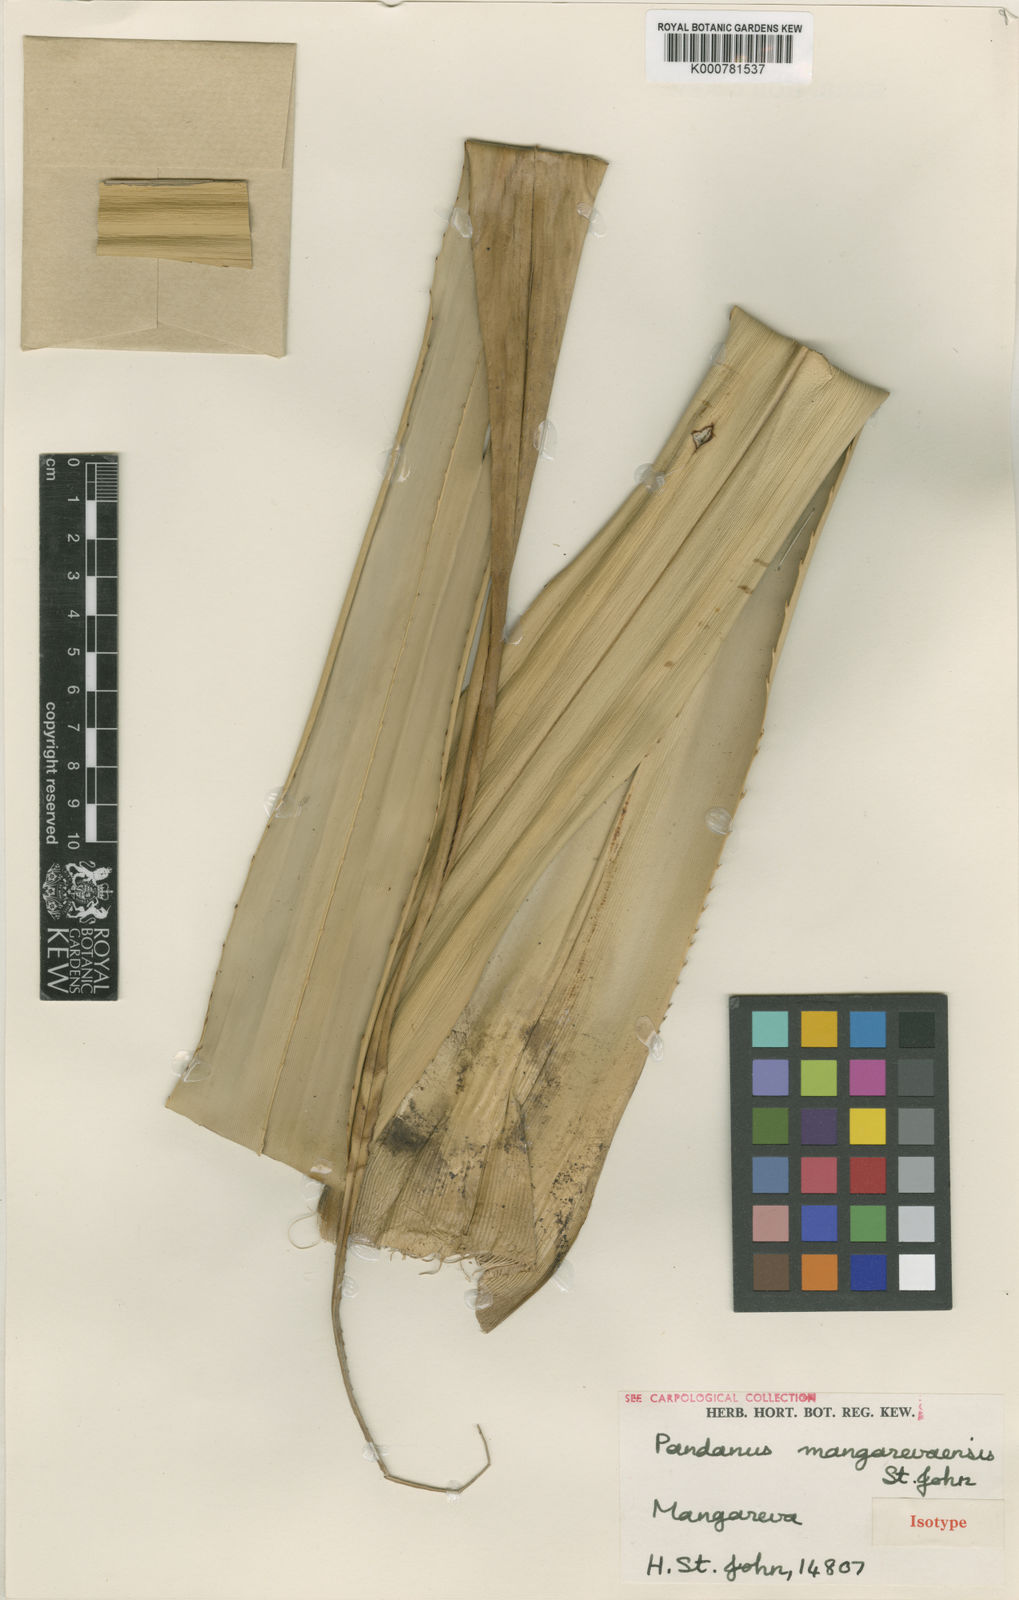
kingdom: Plantae
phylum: Tracheophyta
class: Liliopsida
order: Pandanales
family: Pandanaceae
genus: Pandanus
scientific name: Pandanus tectorius
